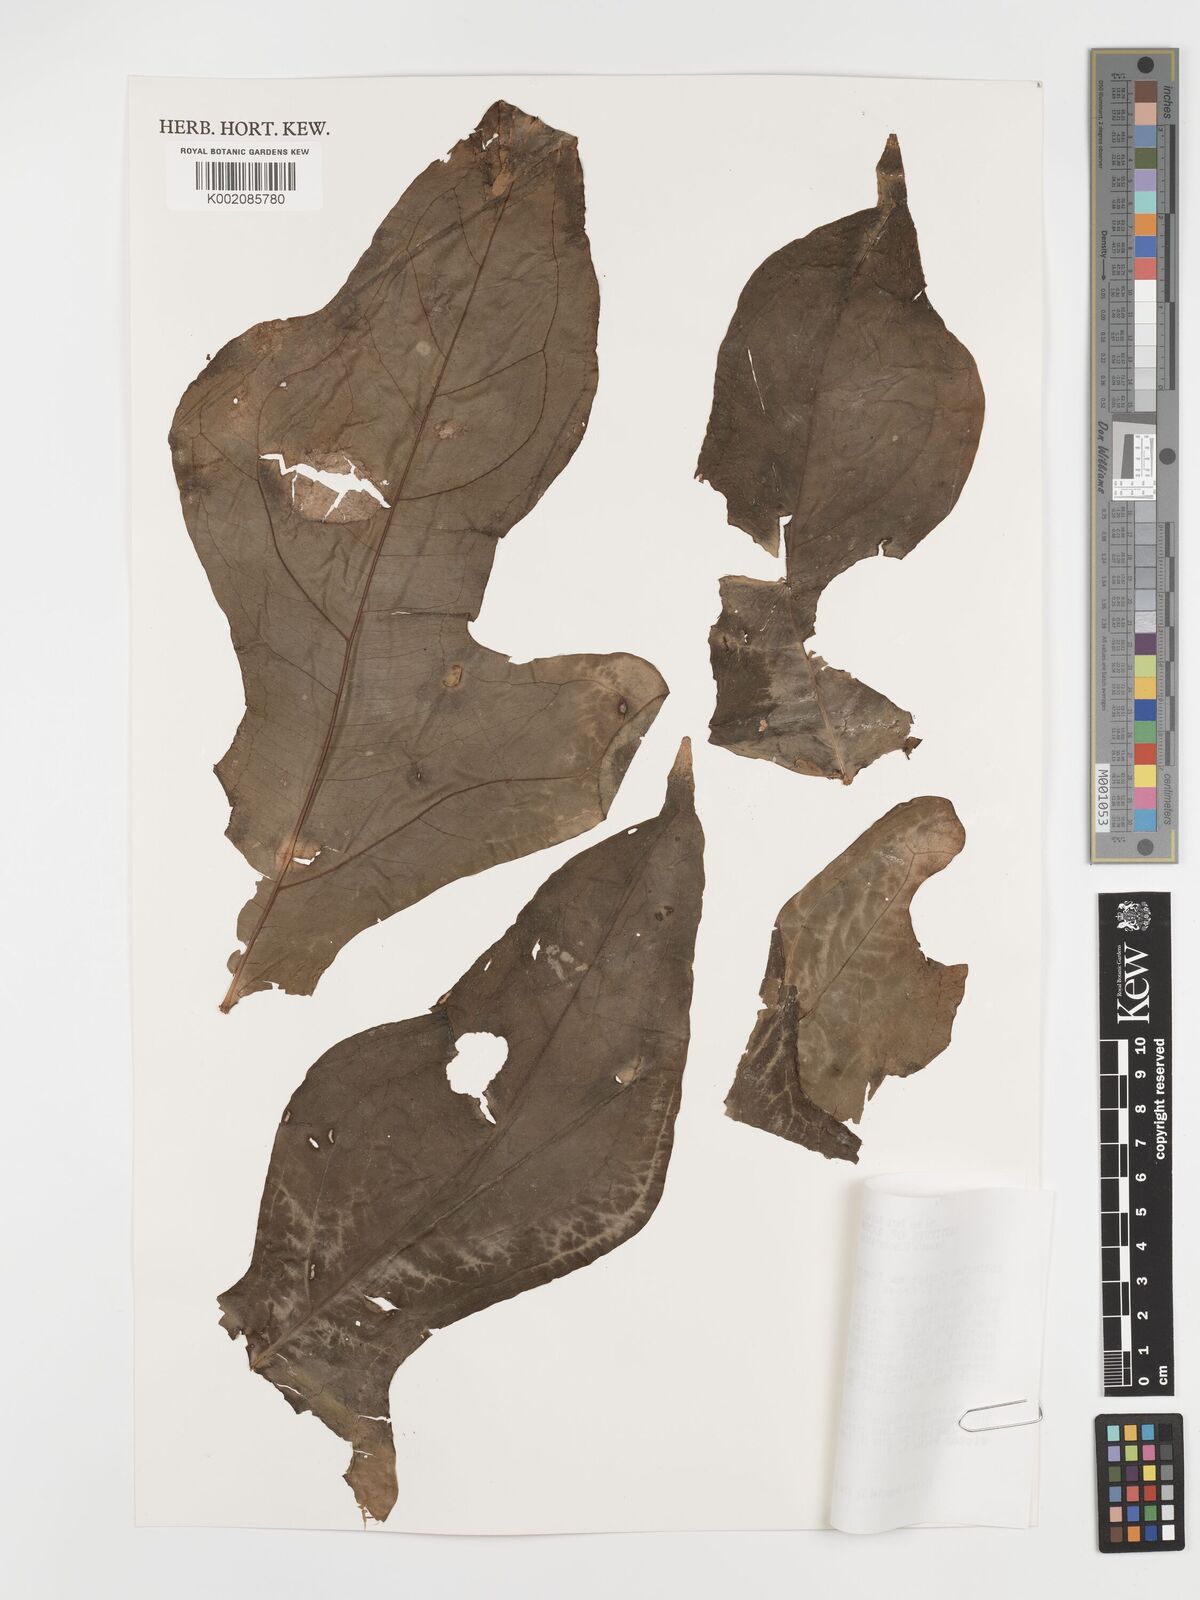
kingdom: Plantae
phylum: Tracheophyta
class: Liliopsida
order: Alismatales
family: Araceae
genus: Anthurium
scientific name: Anthurium clavigerum
